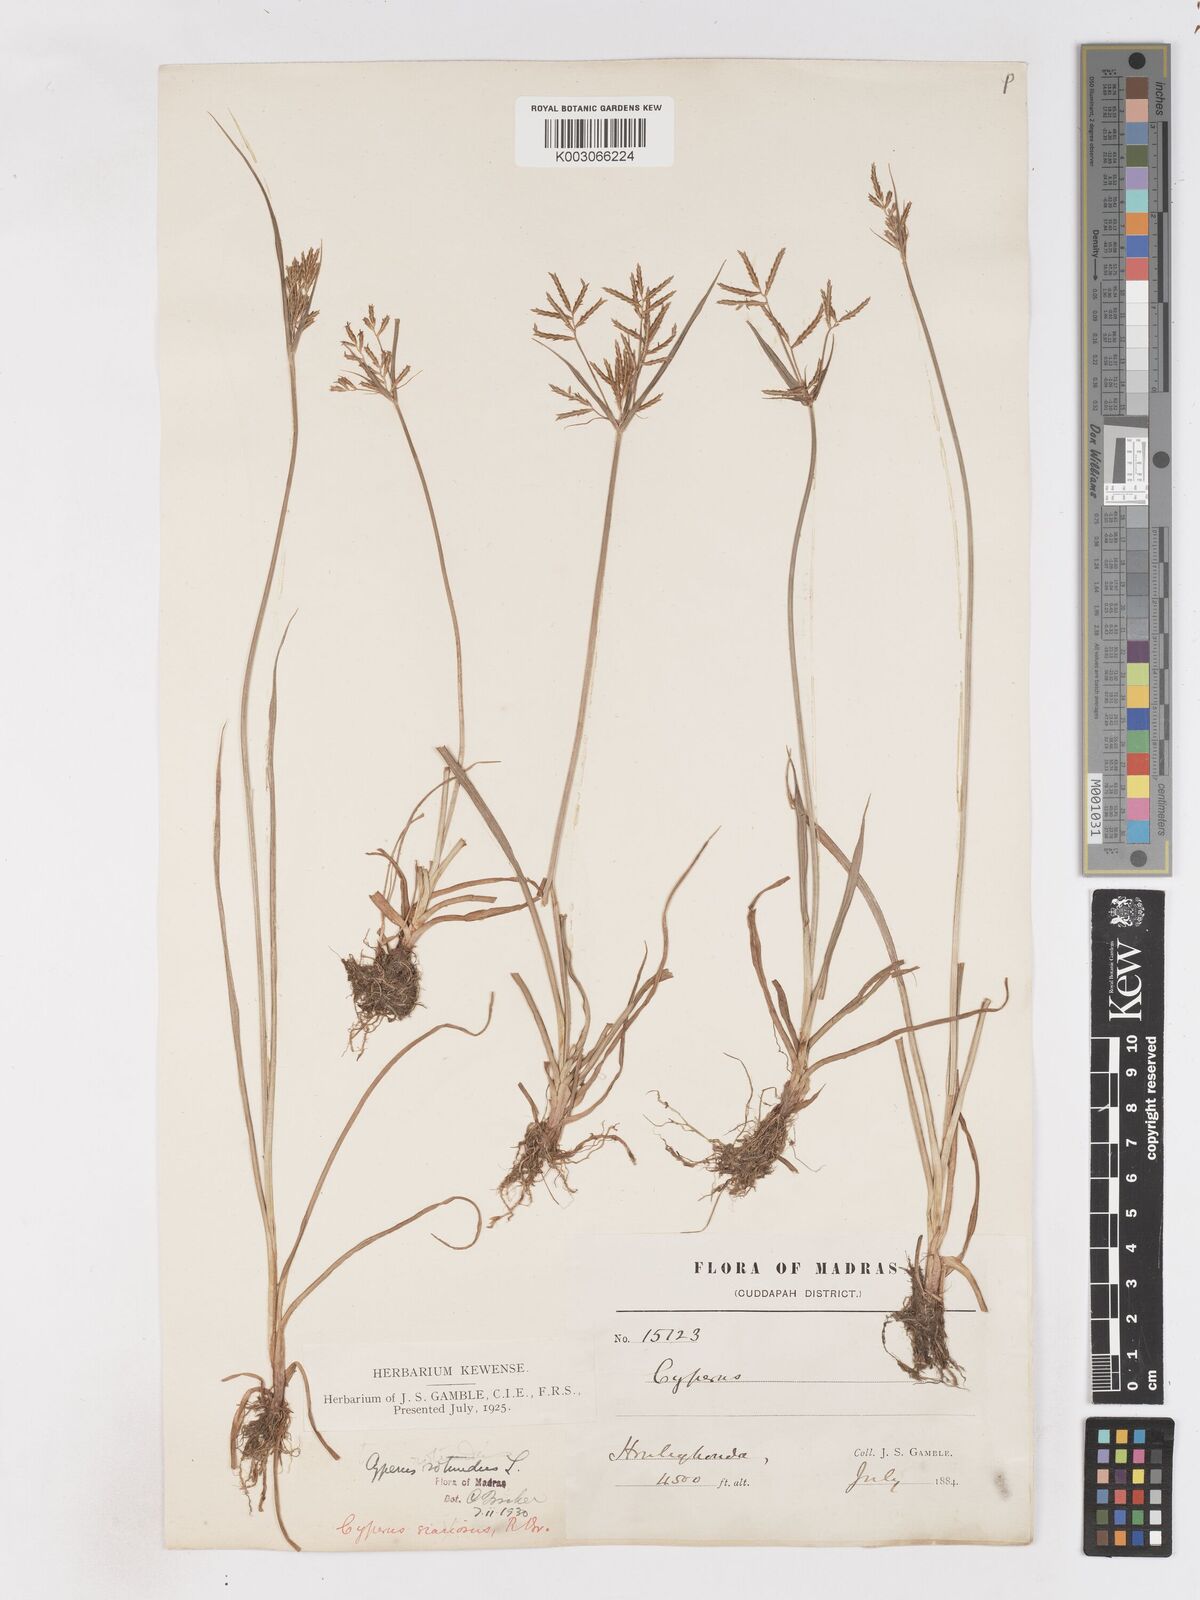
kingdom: Plantae
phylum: Tracheophyta
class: Liliopsida
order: Poales
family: Cyperaceae
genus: Cyperus
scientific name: Cyperus esculentus
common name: Yellow nutsedge
